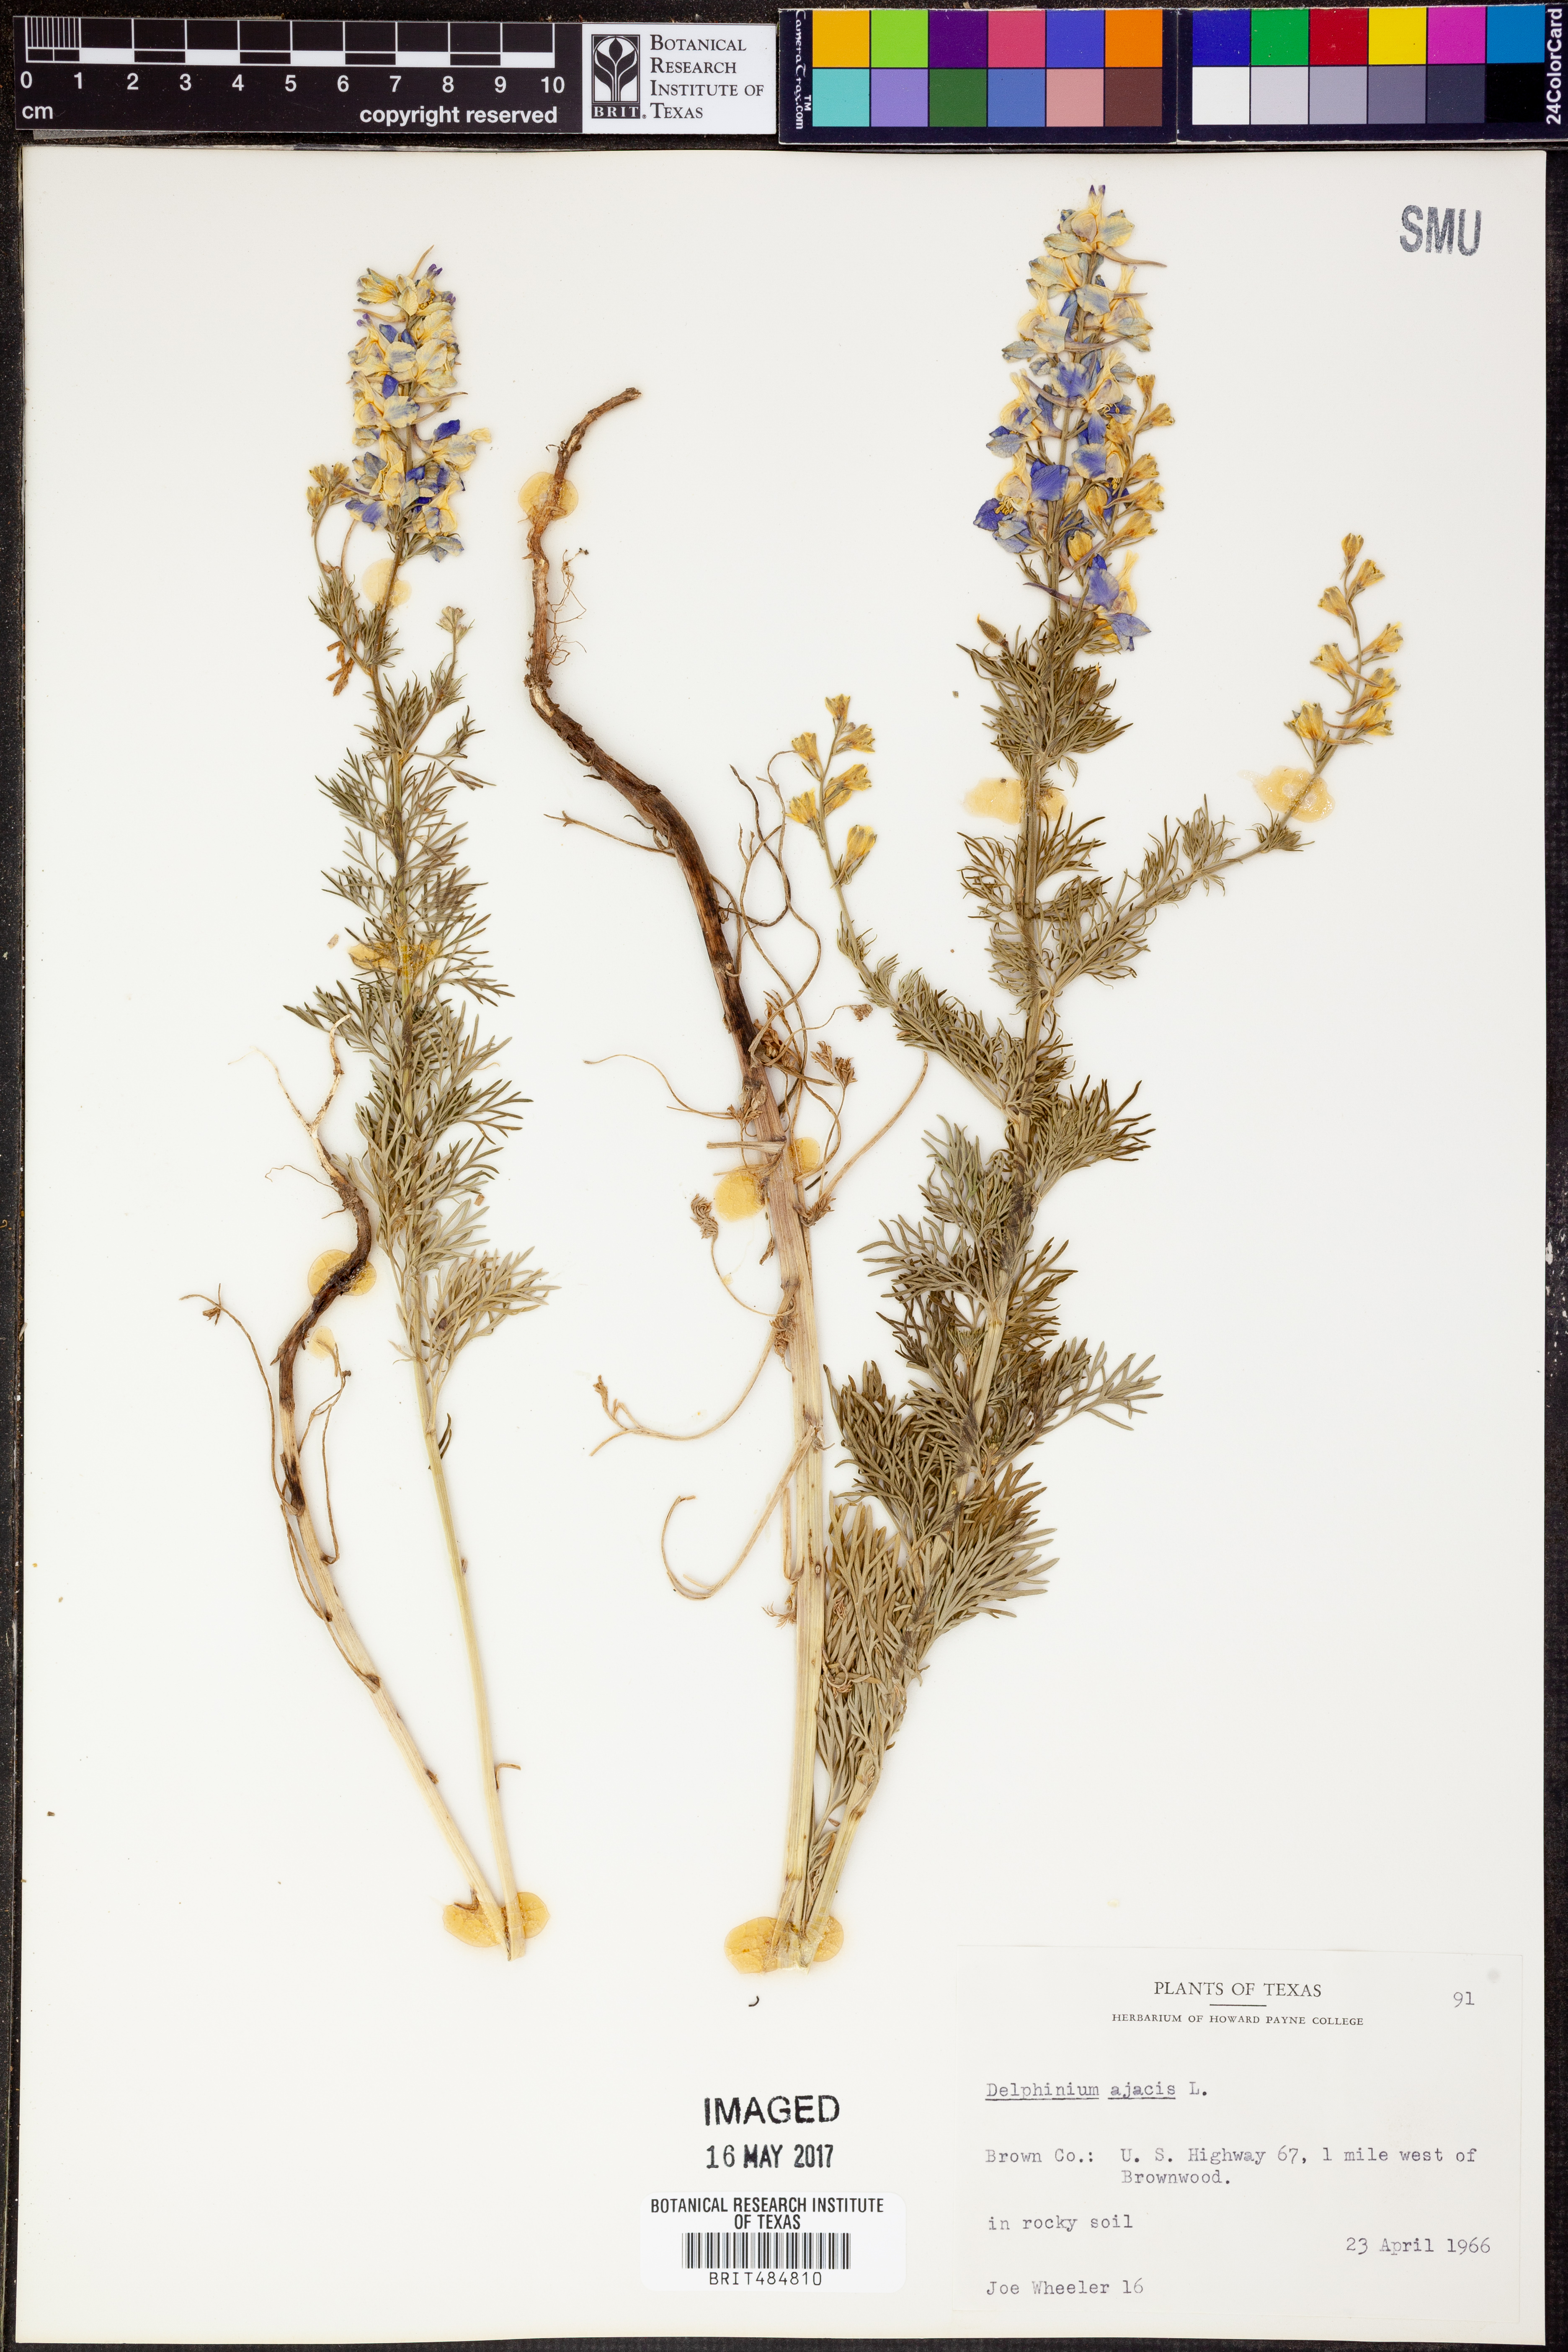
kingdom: Plantae
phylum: Tracheophyta
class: Magnoliopsida
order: Ranunculales
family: Ranunculaceae
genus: Delphinium
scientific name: Delphinium ajacis
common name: Doubtful knight's-spur
